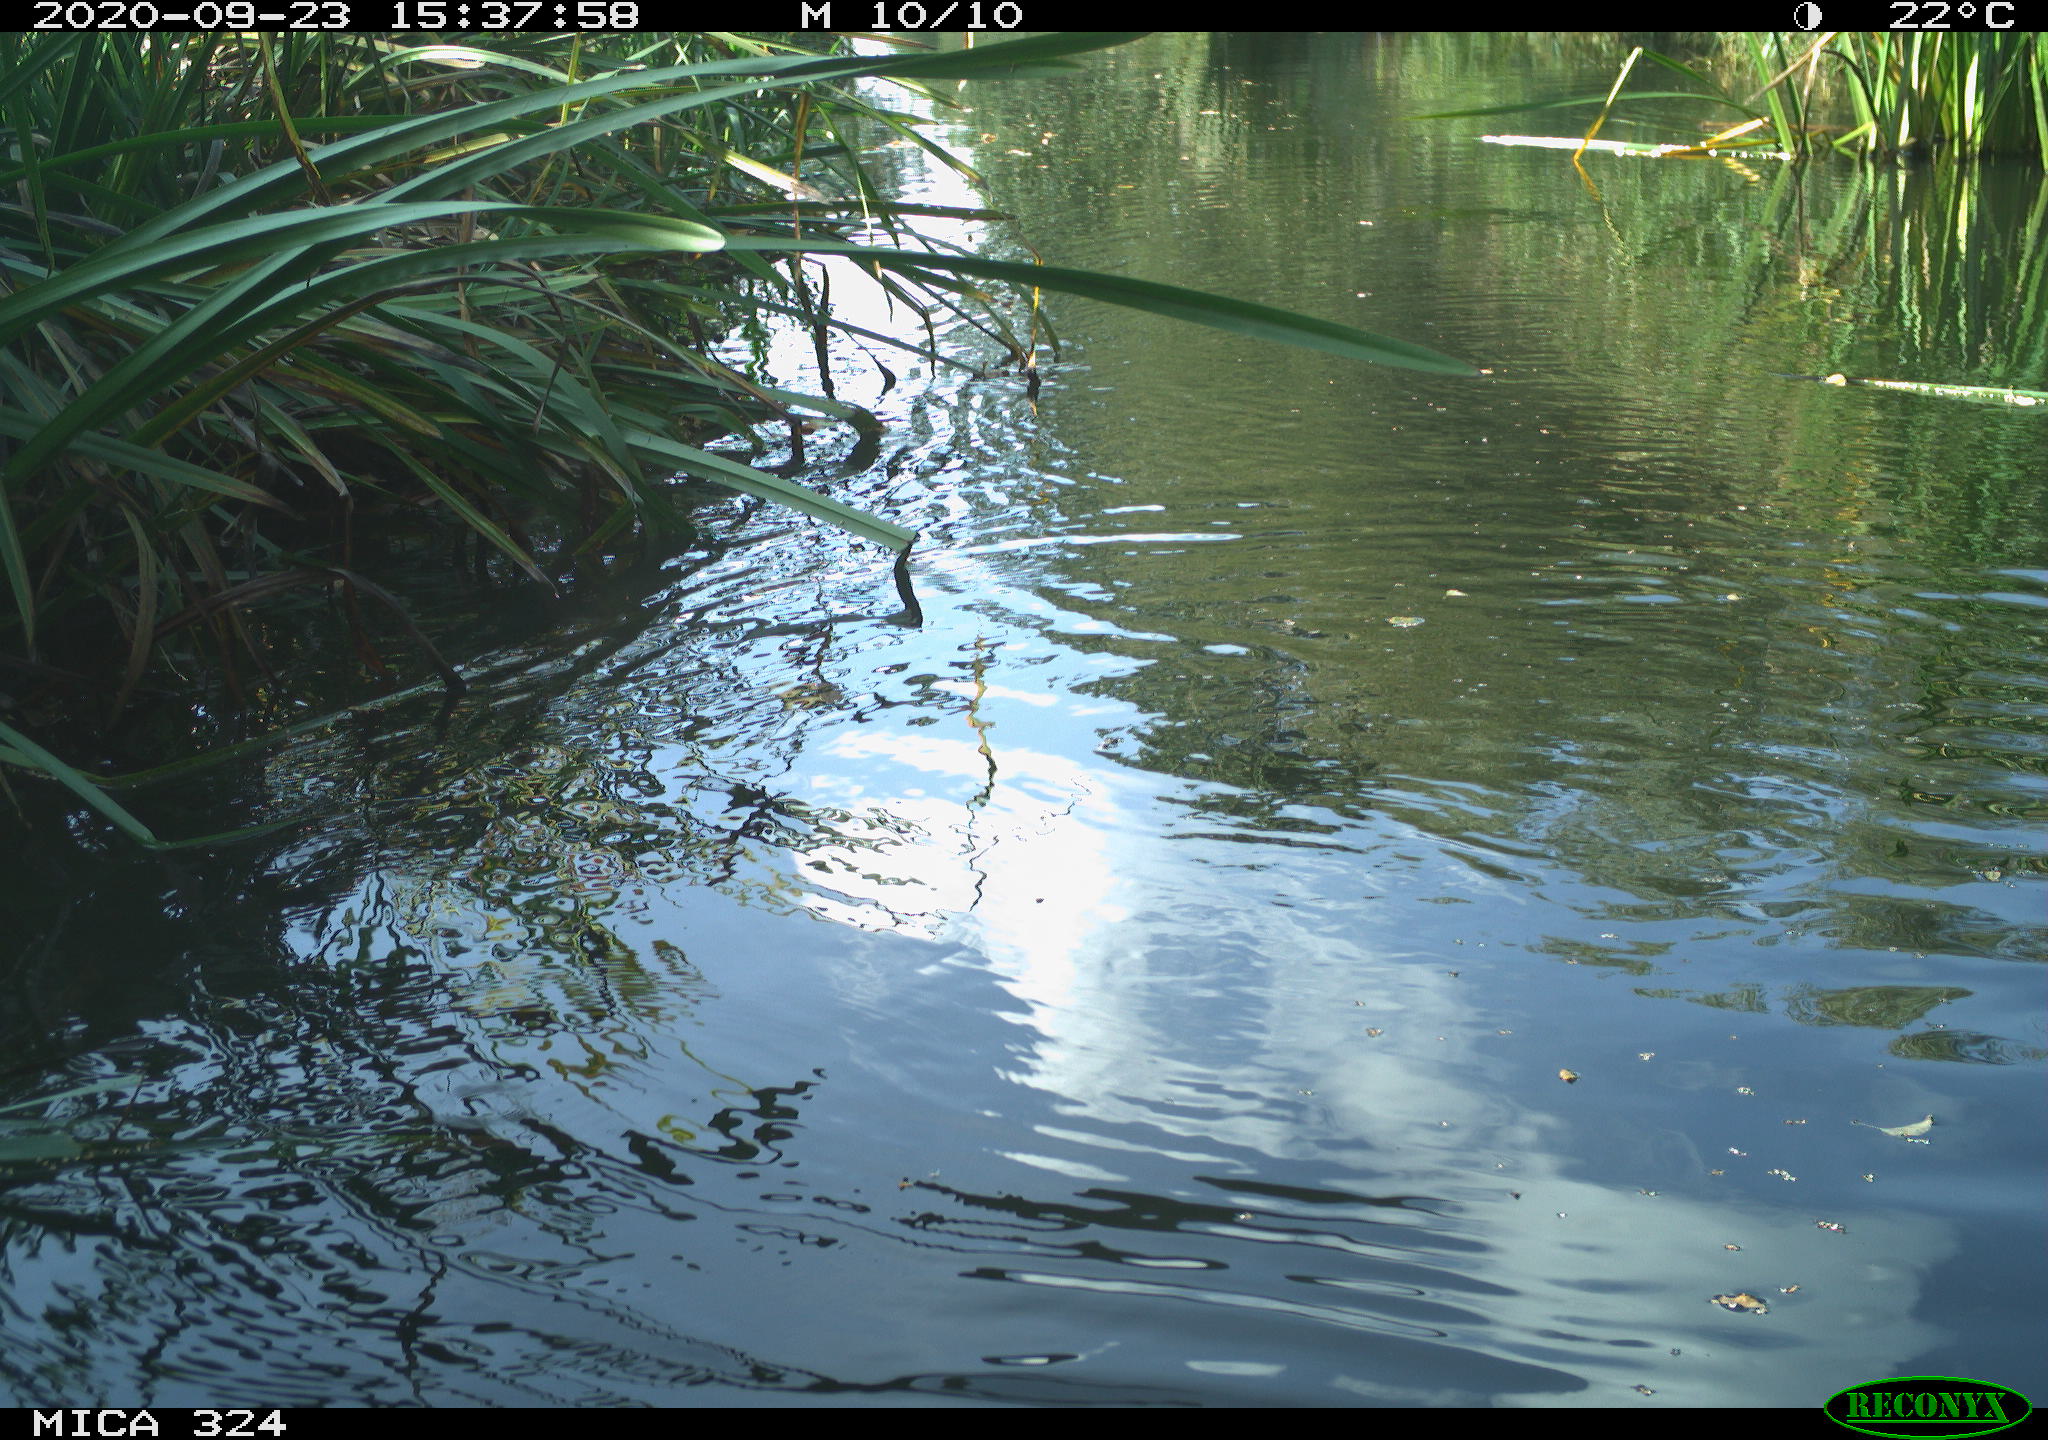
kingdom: Animalia
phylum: Chordata
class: Mammalia
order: Rodentia
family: Cricetidae
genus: Ondatra
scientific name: Ondatra zibethicus
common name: Muskrat
